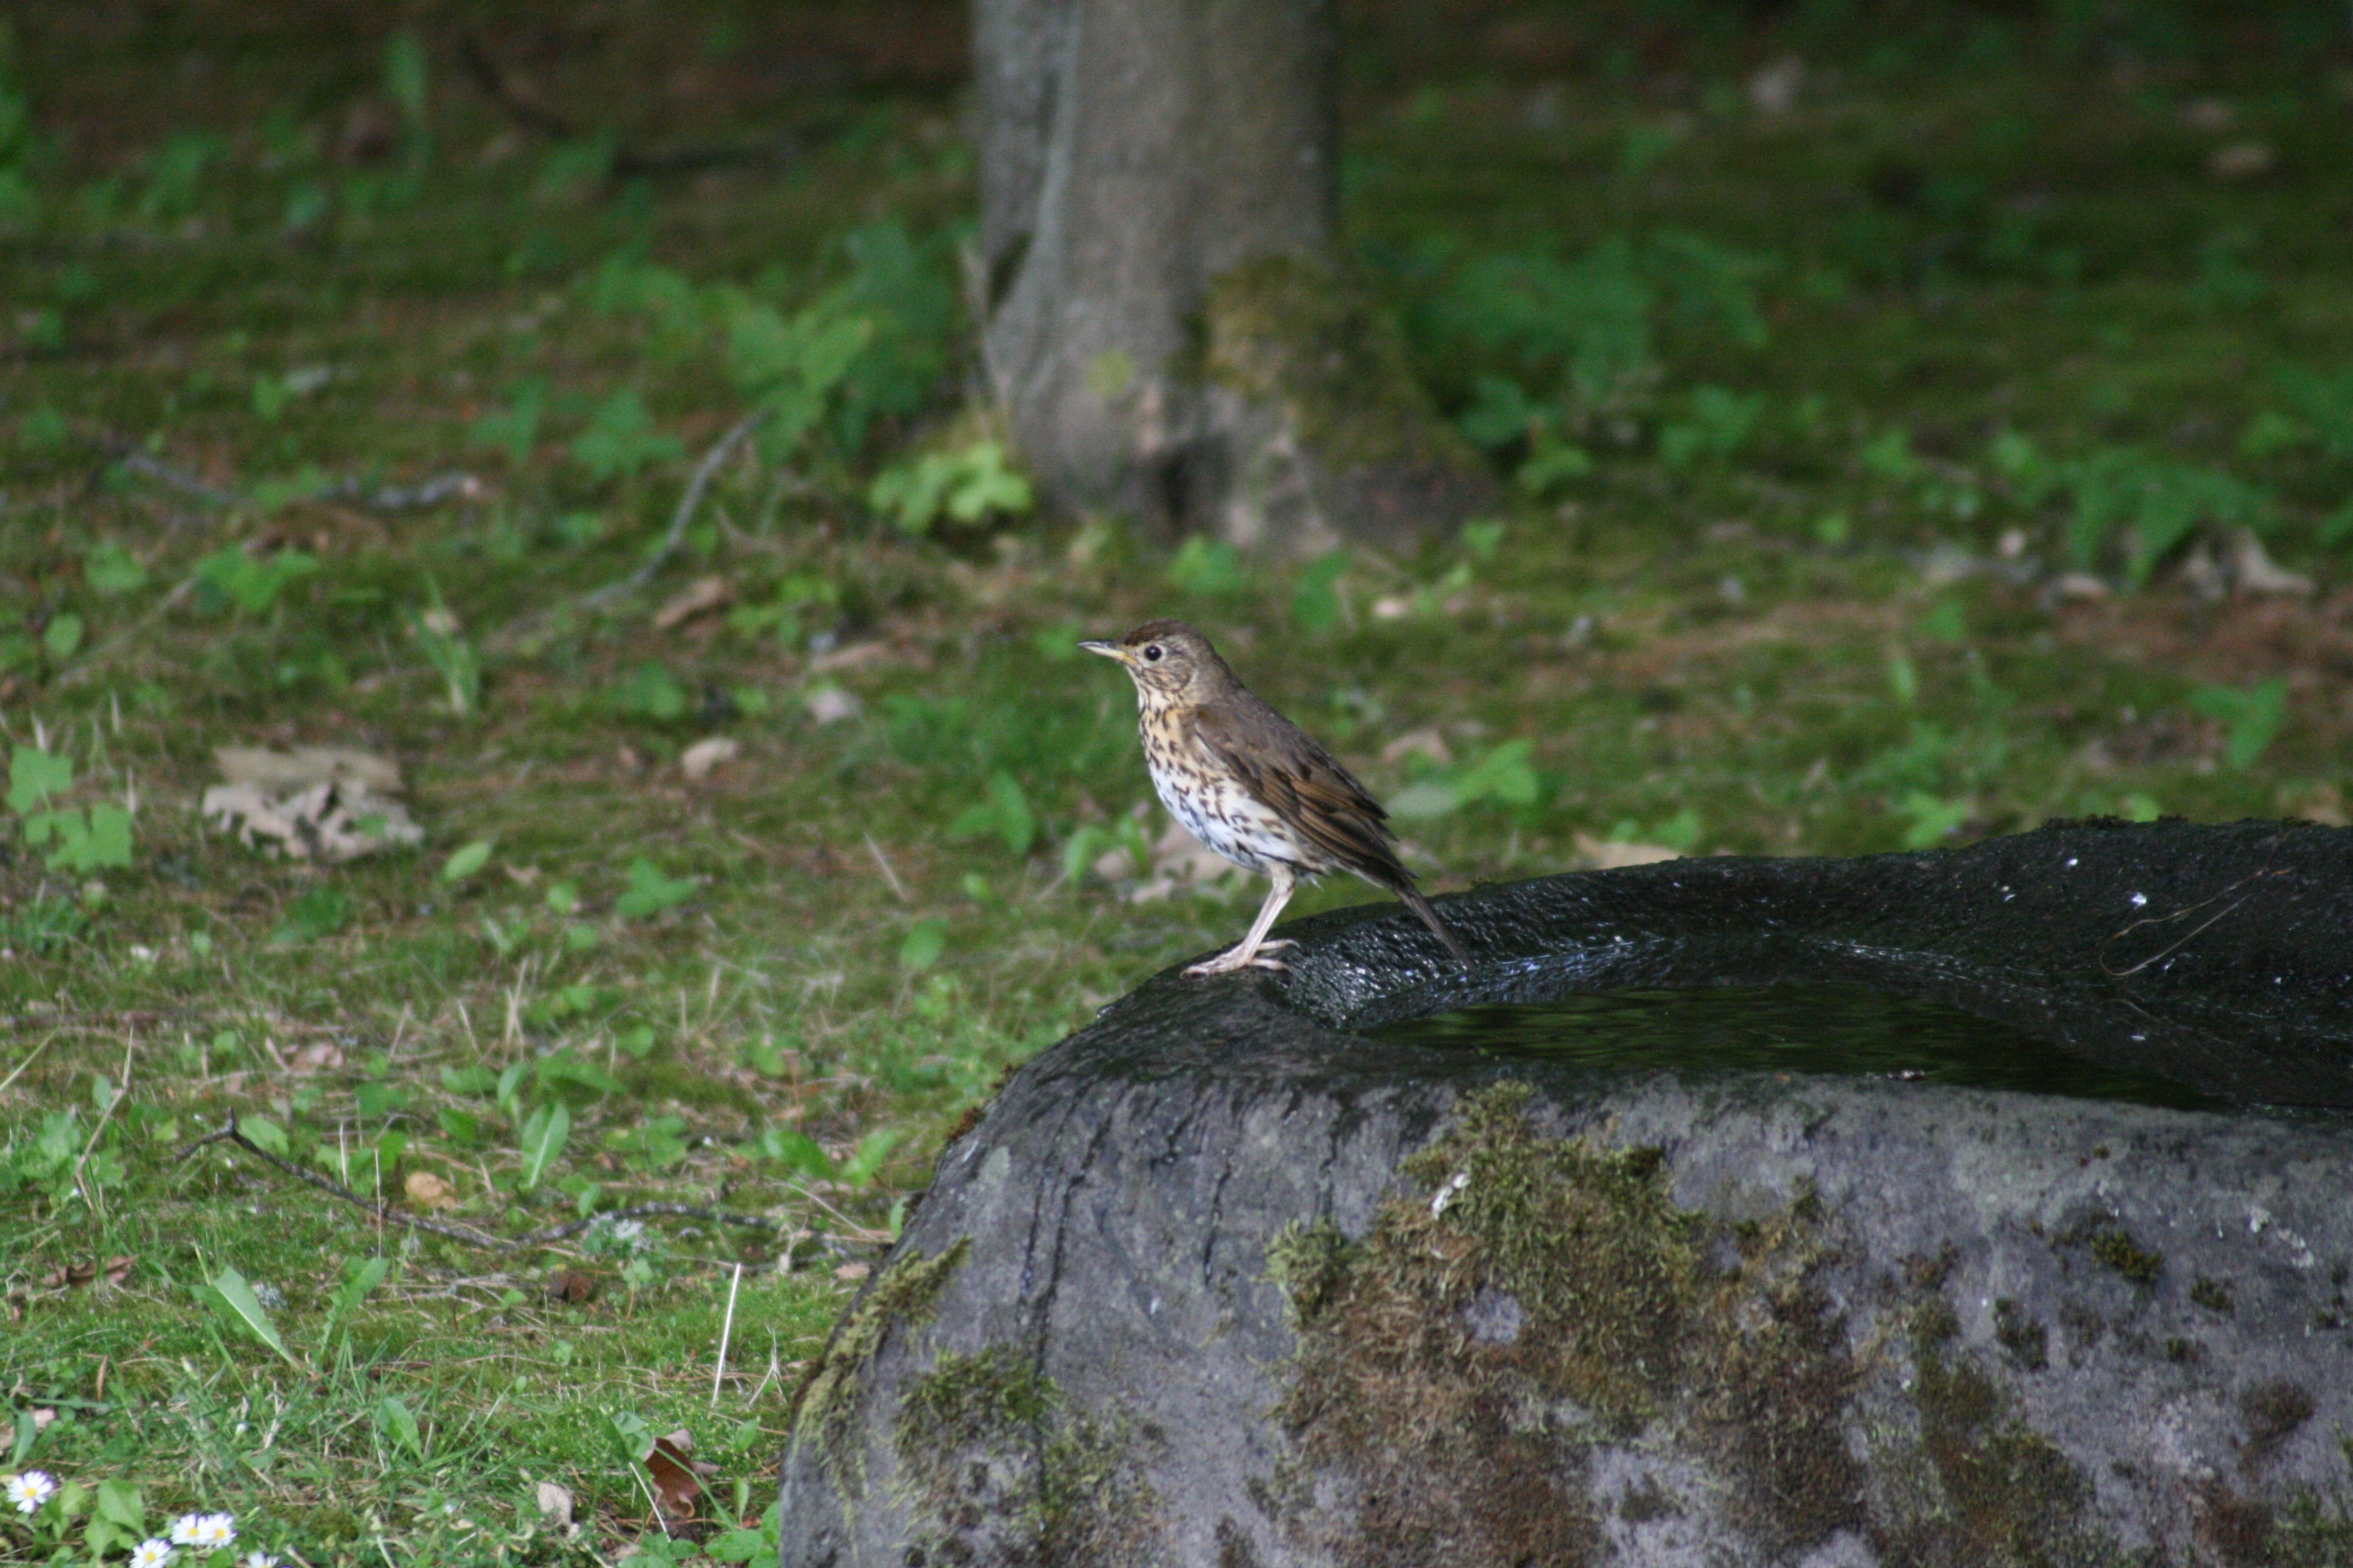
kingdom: Animalia
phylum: Chordata
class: Aves
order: Passeriformes
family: Turdidae
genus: Turdus
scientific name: Turdus philomelos
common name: Sangdrossel
